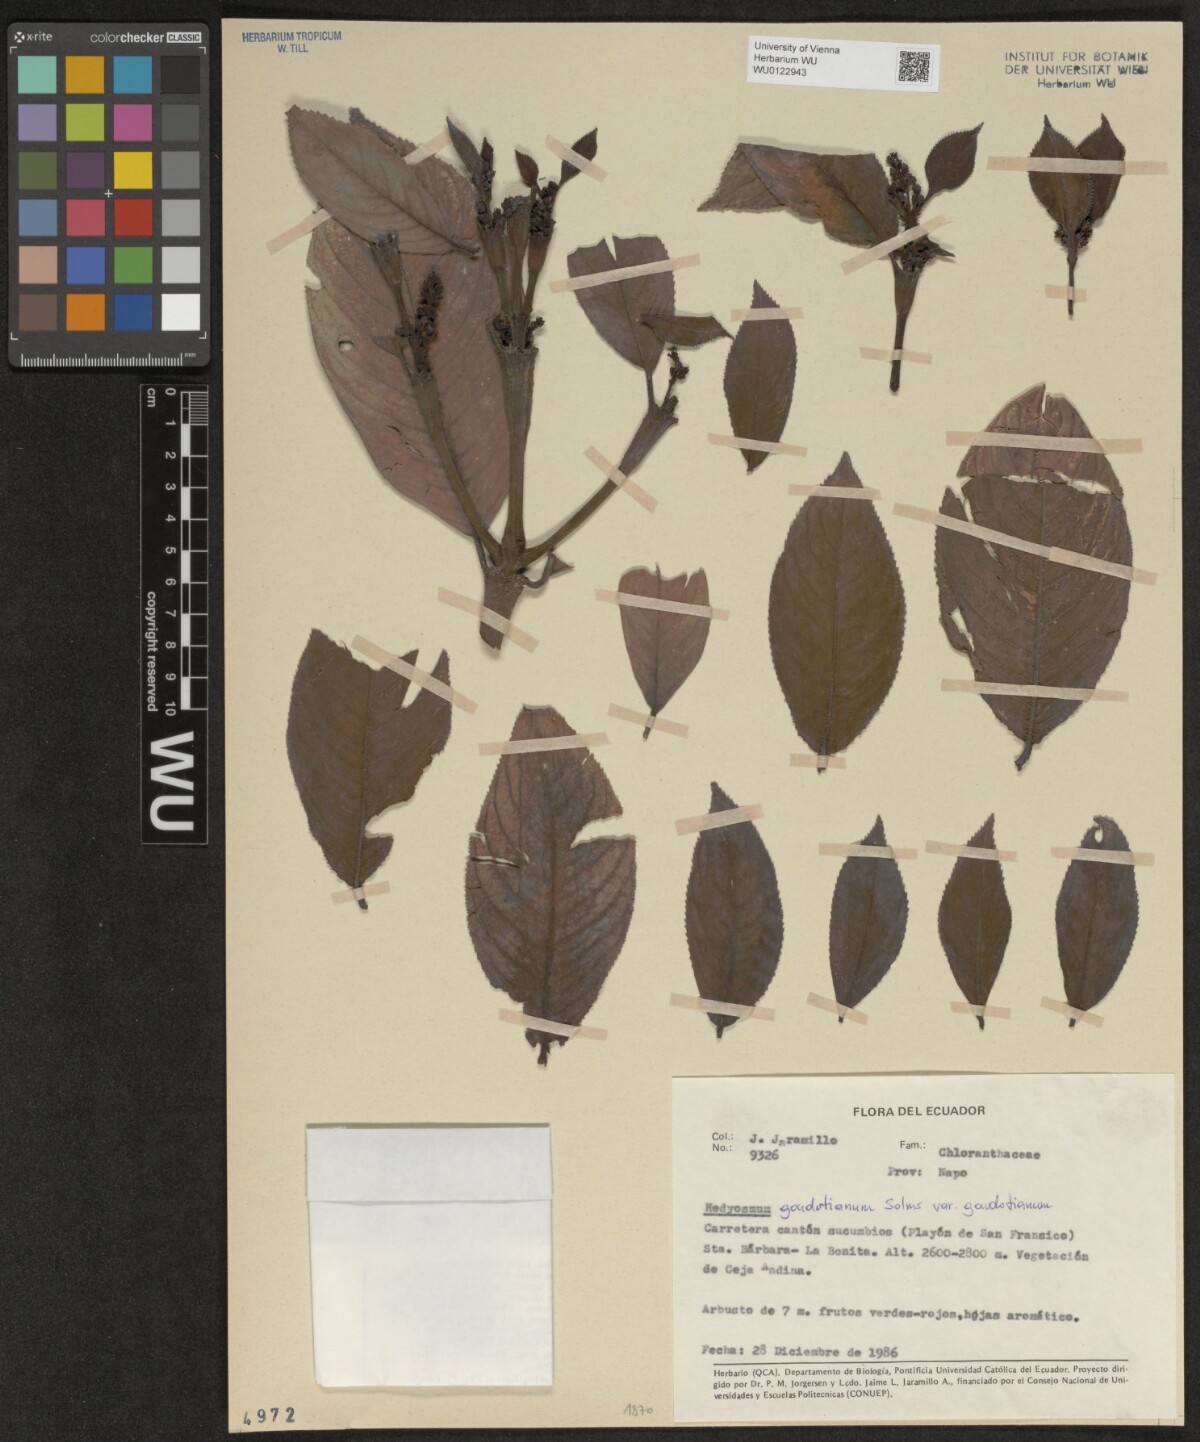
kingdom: Plantae
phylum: Tracheophyta
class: Magnoliopsida
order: Chloranthales
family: Chloranthaceae
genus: Hedyosmum
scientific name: Hedyosmum goudotianum
